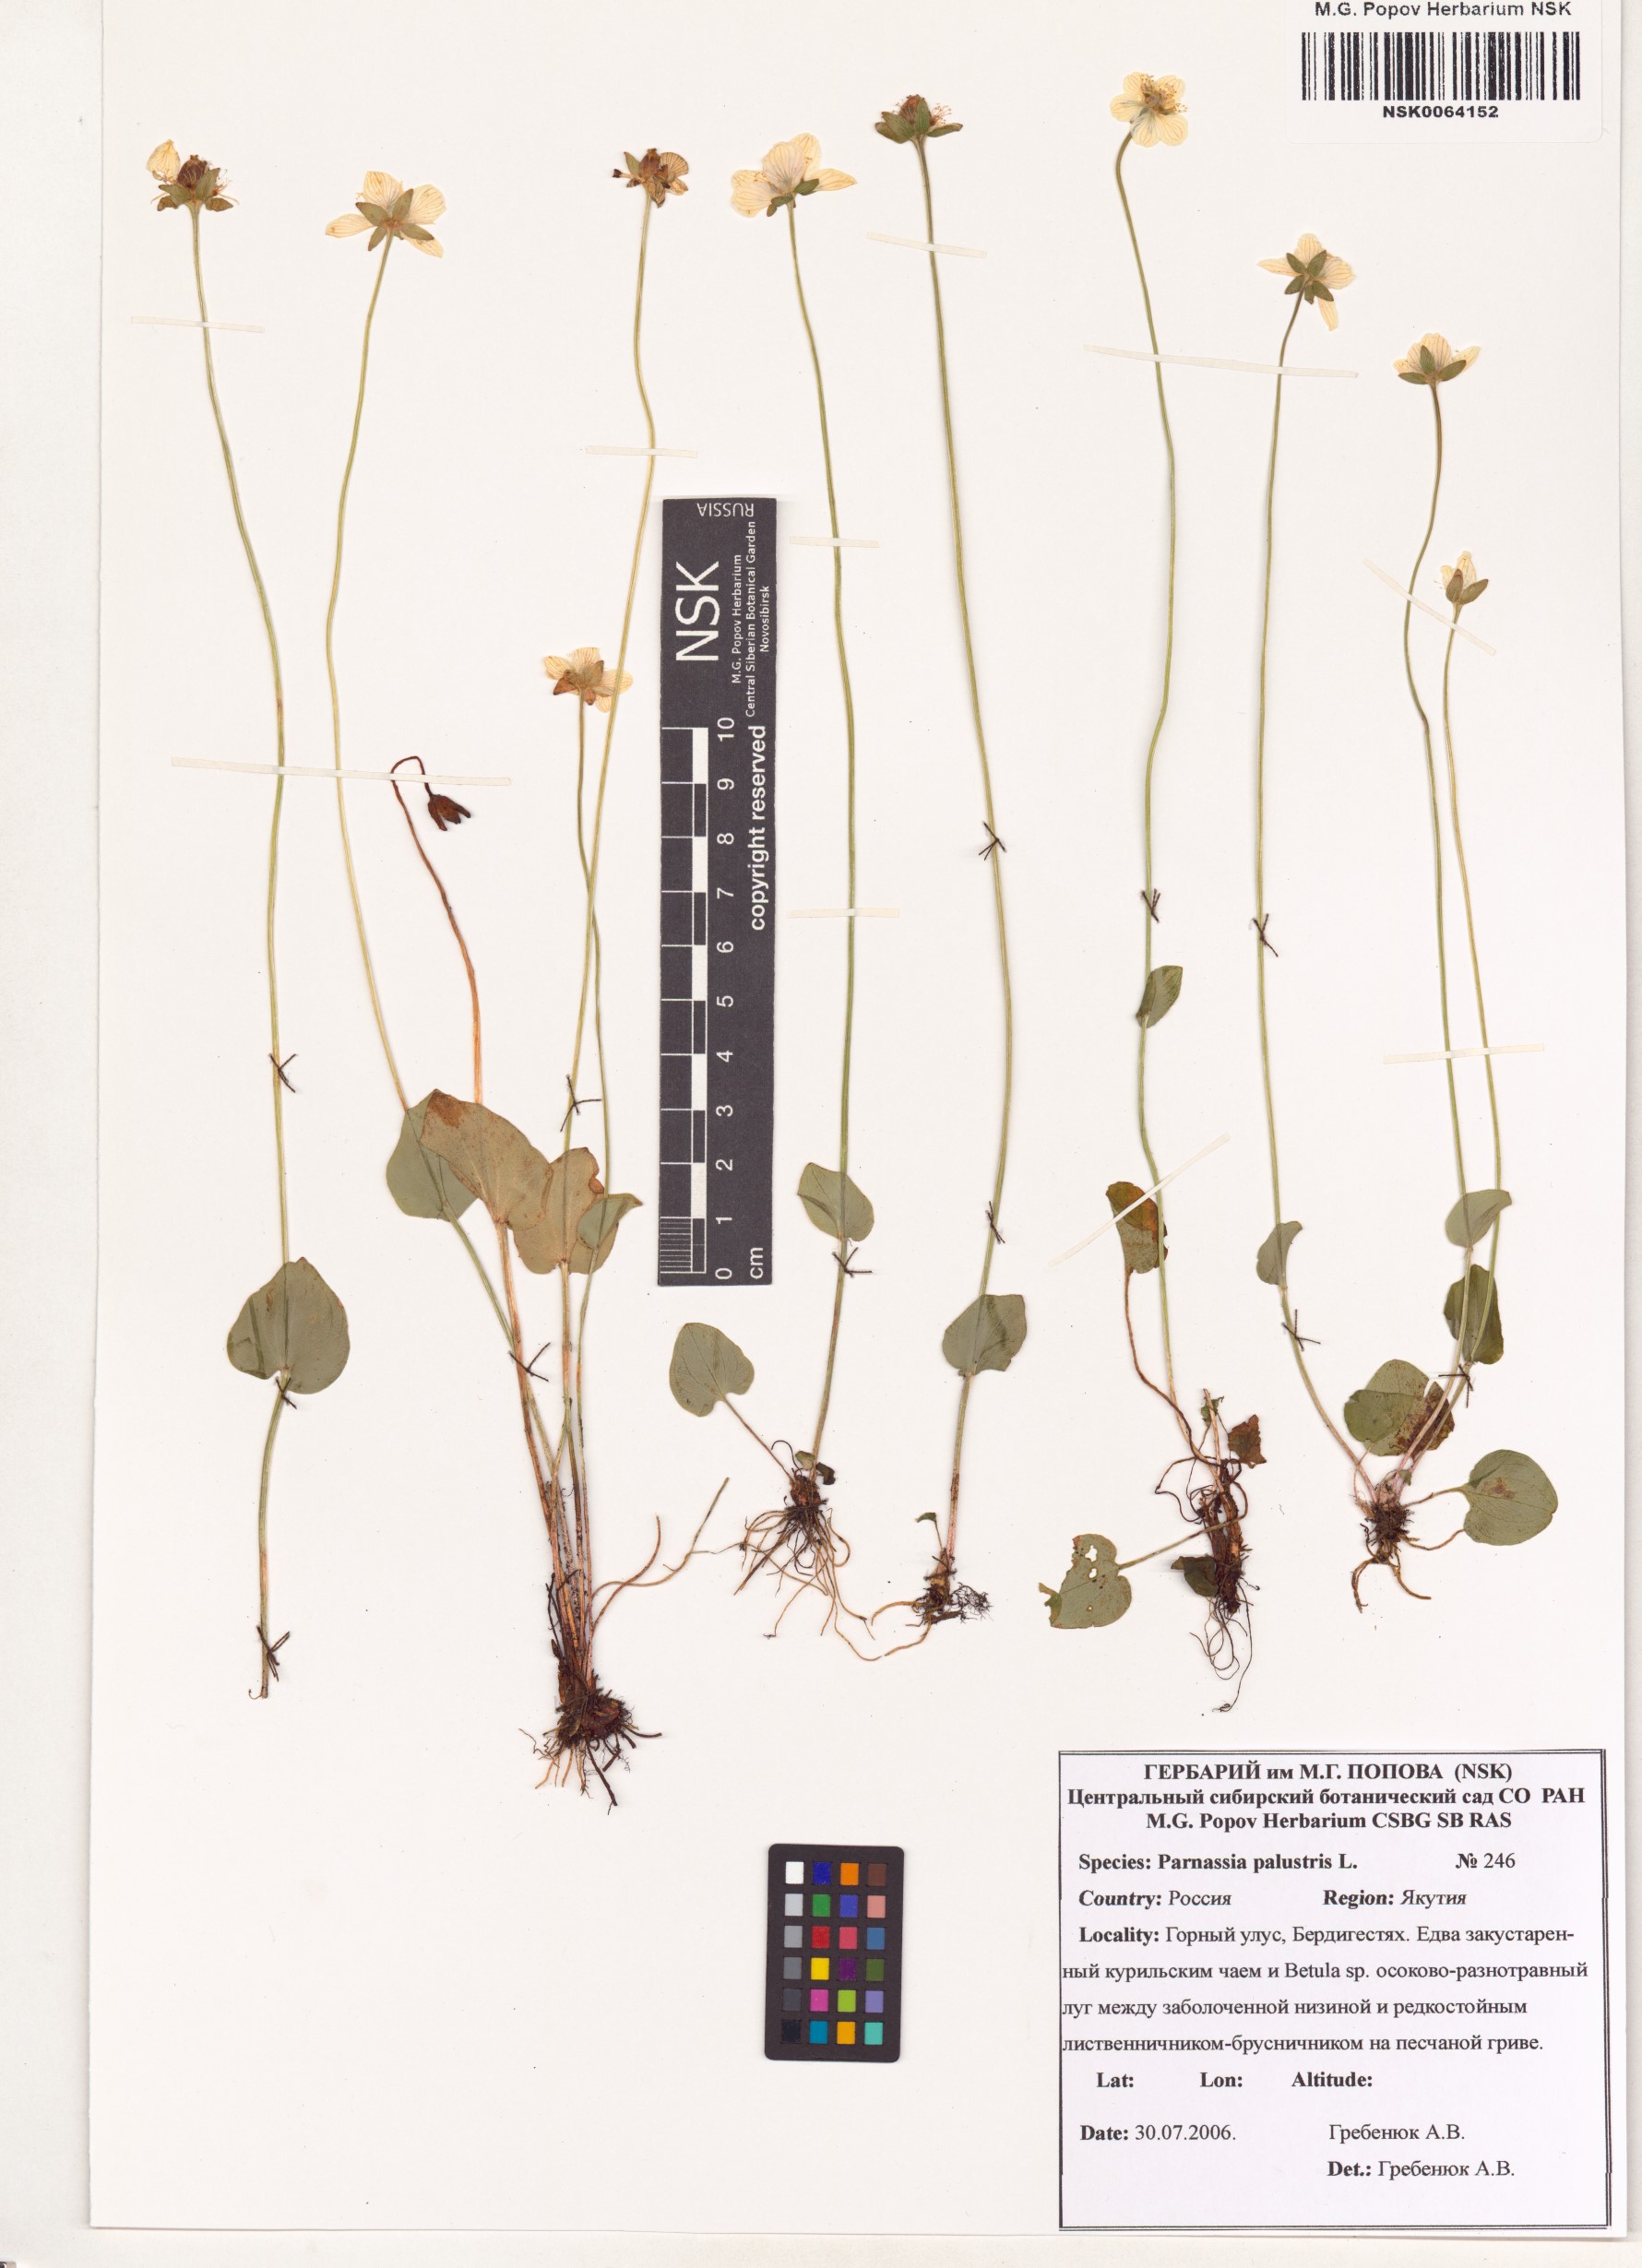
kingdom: Plantae
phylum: Tracheophyta
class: Magnoliopsida
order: Celastrales
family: Parnassiaceae
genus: Parnassia
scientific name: Parnassia palustris
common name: Grass-of-parnassus
